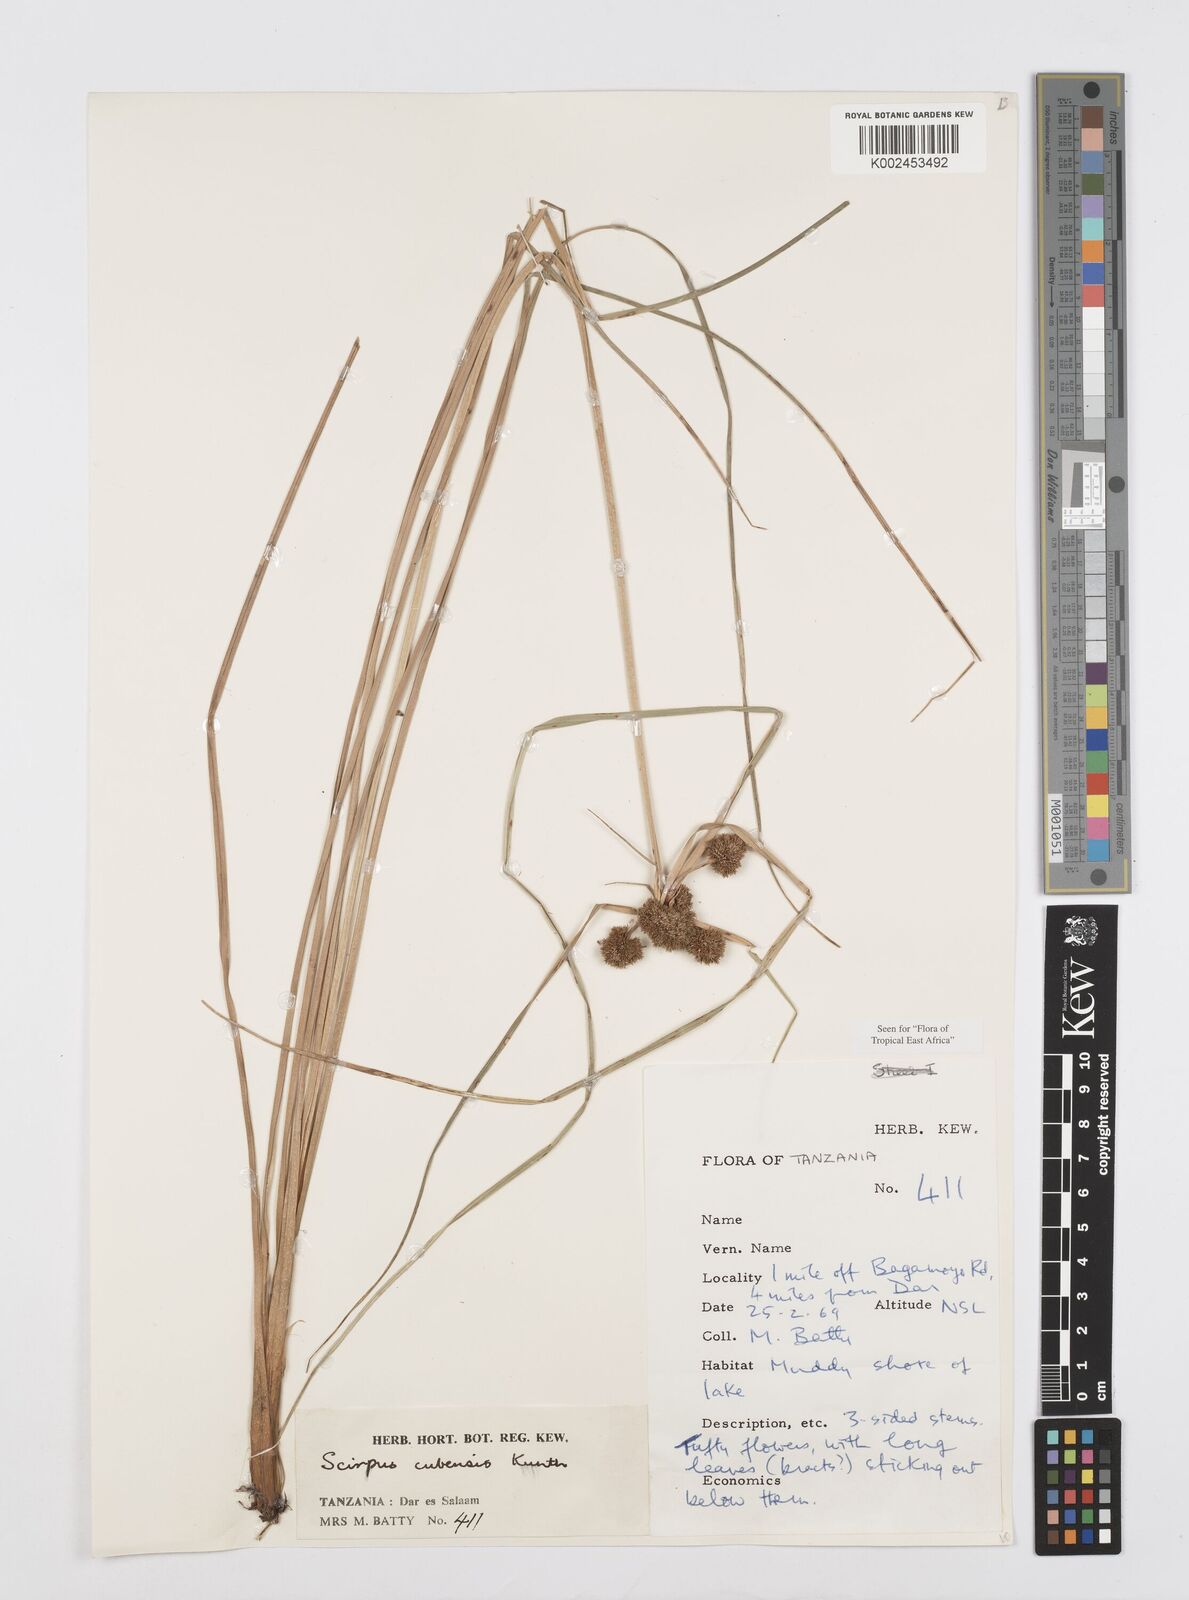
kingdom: Plantae
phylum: Tracheophyta
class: Liliopsida
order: Poales
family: Cyperaceae
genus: Cyperus
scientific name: Cyperus elegans
